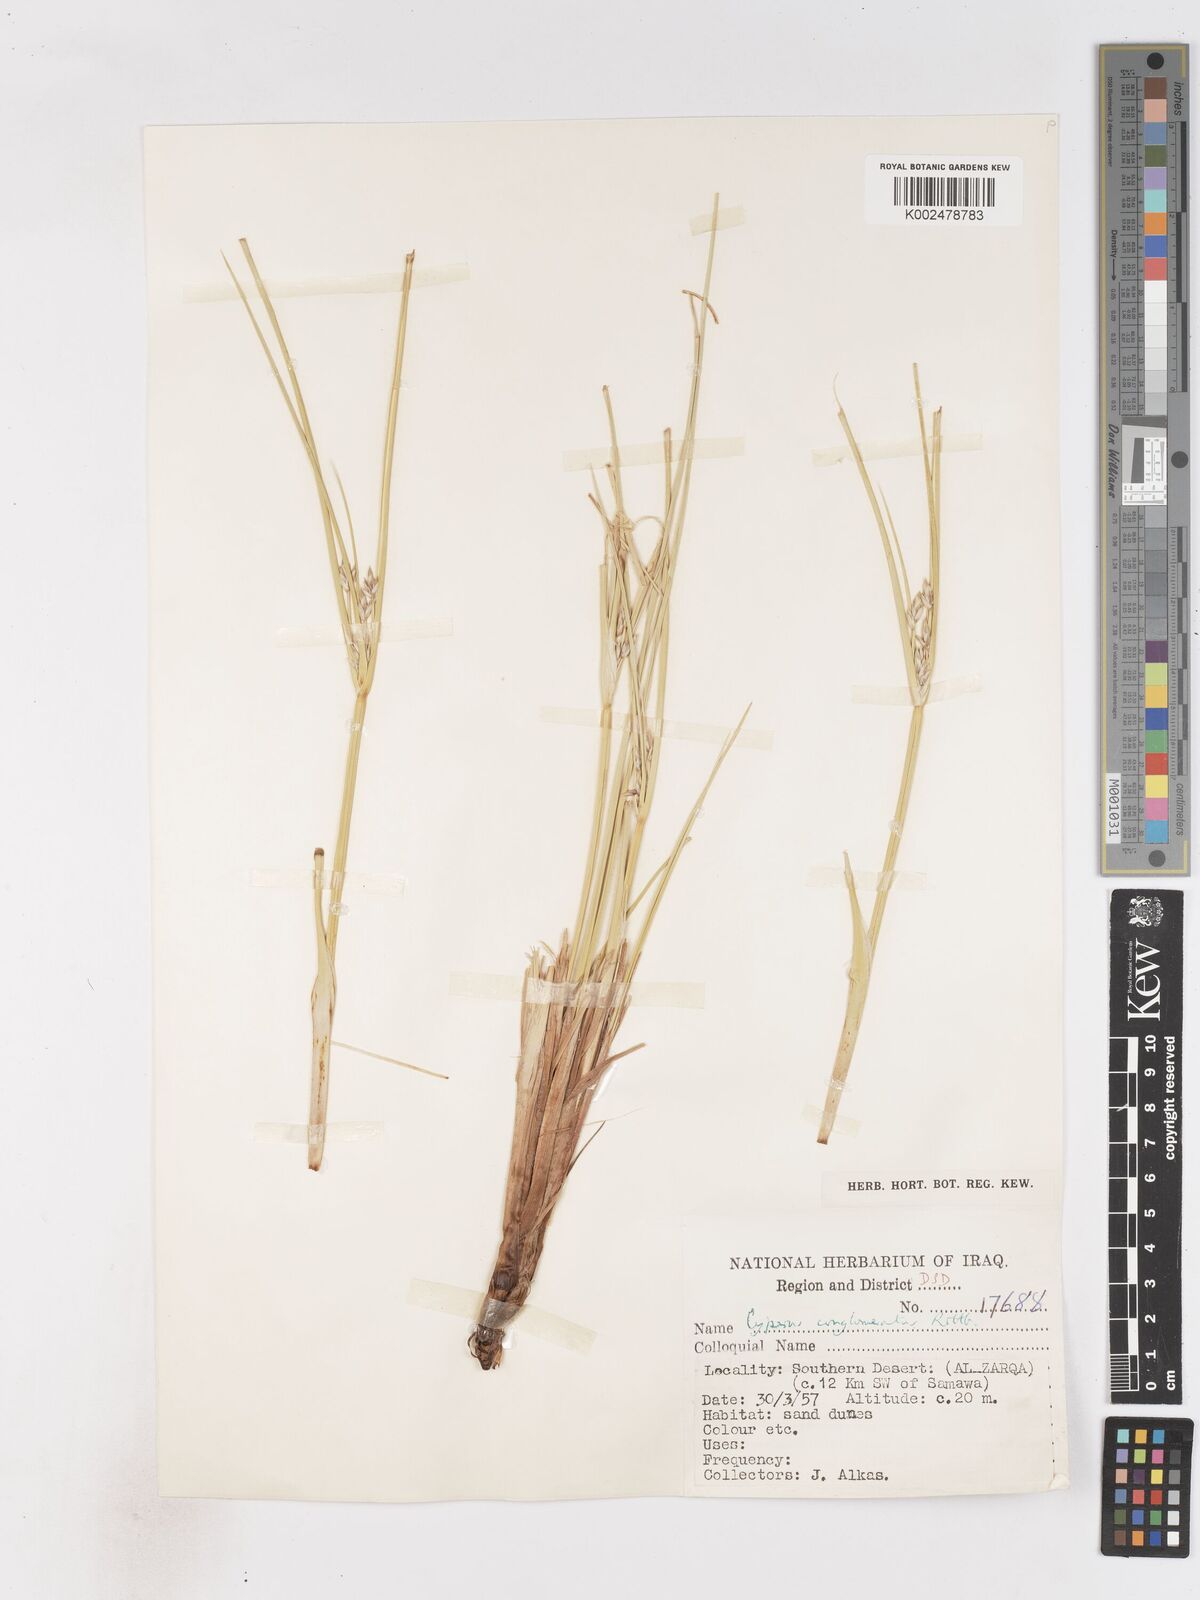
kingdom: Plantae
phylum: Tracheophyta
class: Liliopsida
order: Poales
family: Cyperaceae
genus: Cyperus
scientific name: Cyperus aucheri
